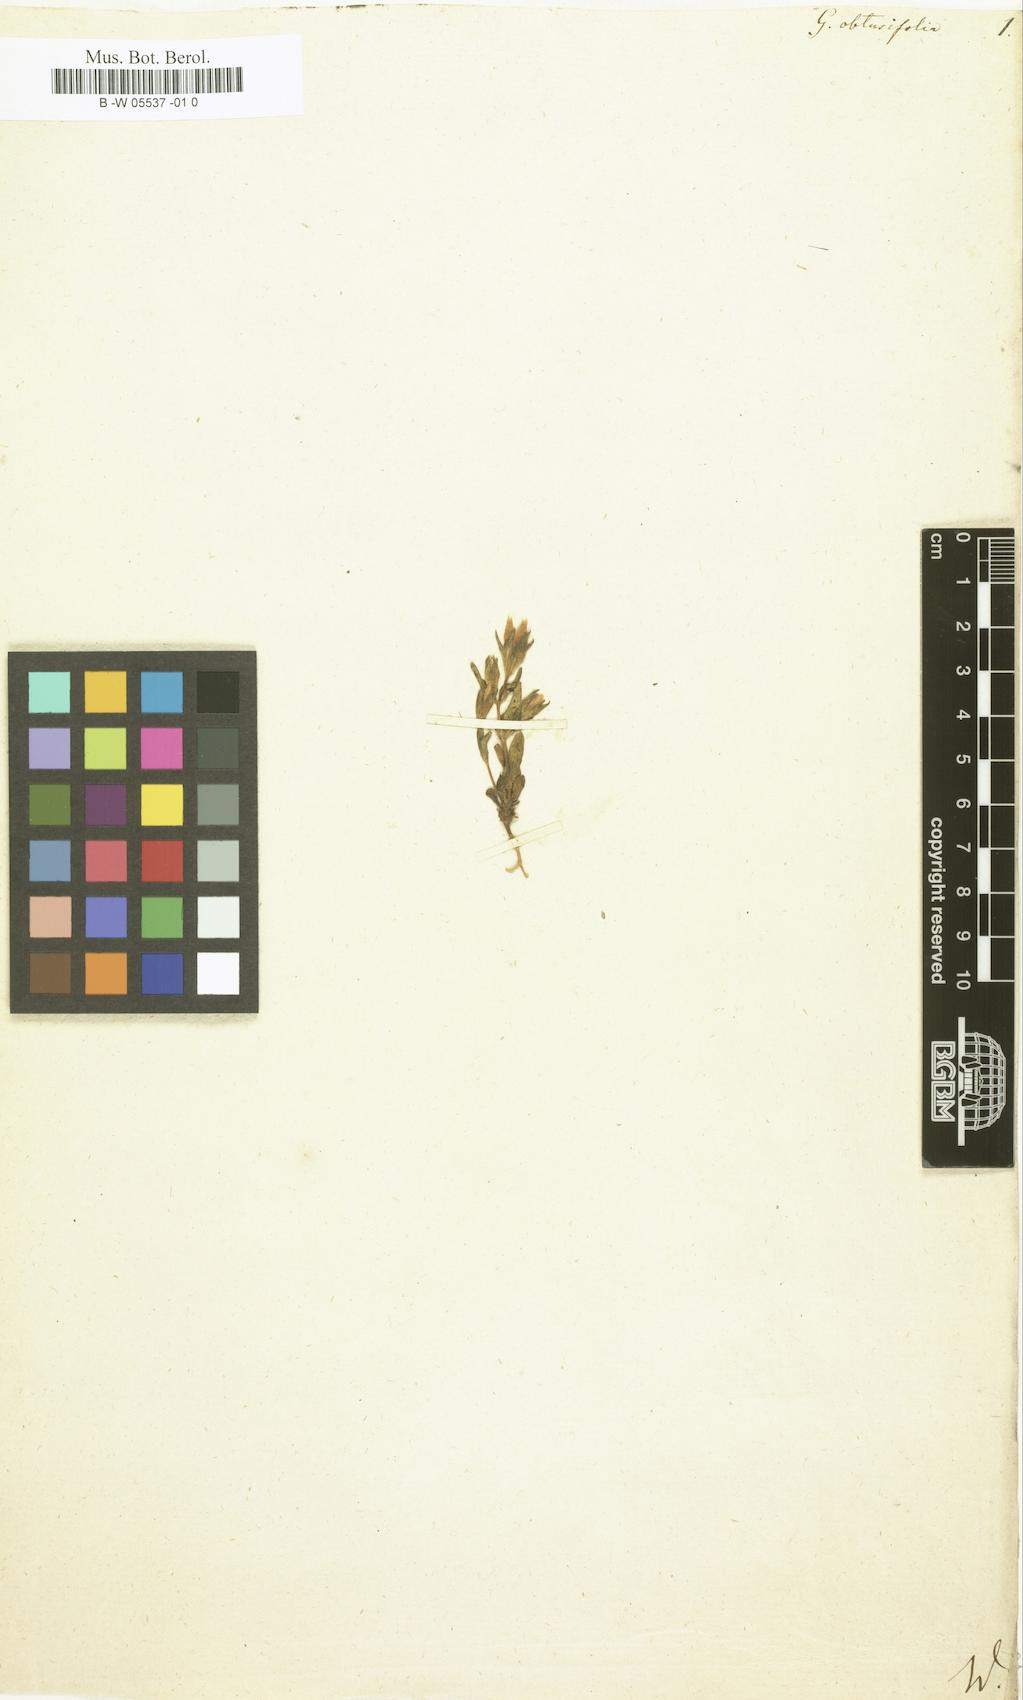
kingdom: Plantae
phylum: Tracheophyta
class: Magnoliopsida
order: Gentianales
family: Gentianaceae
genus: Gentianella
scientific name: Gentianella obtusifolia
